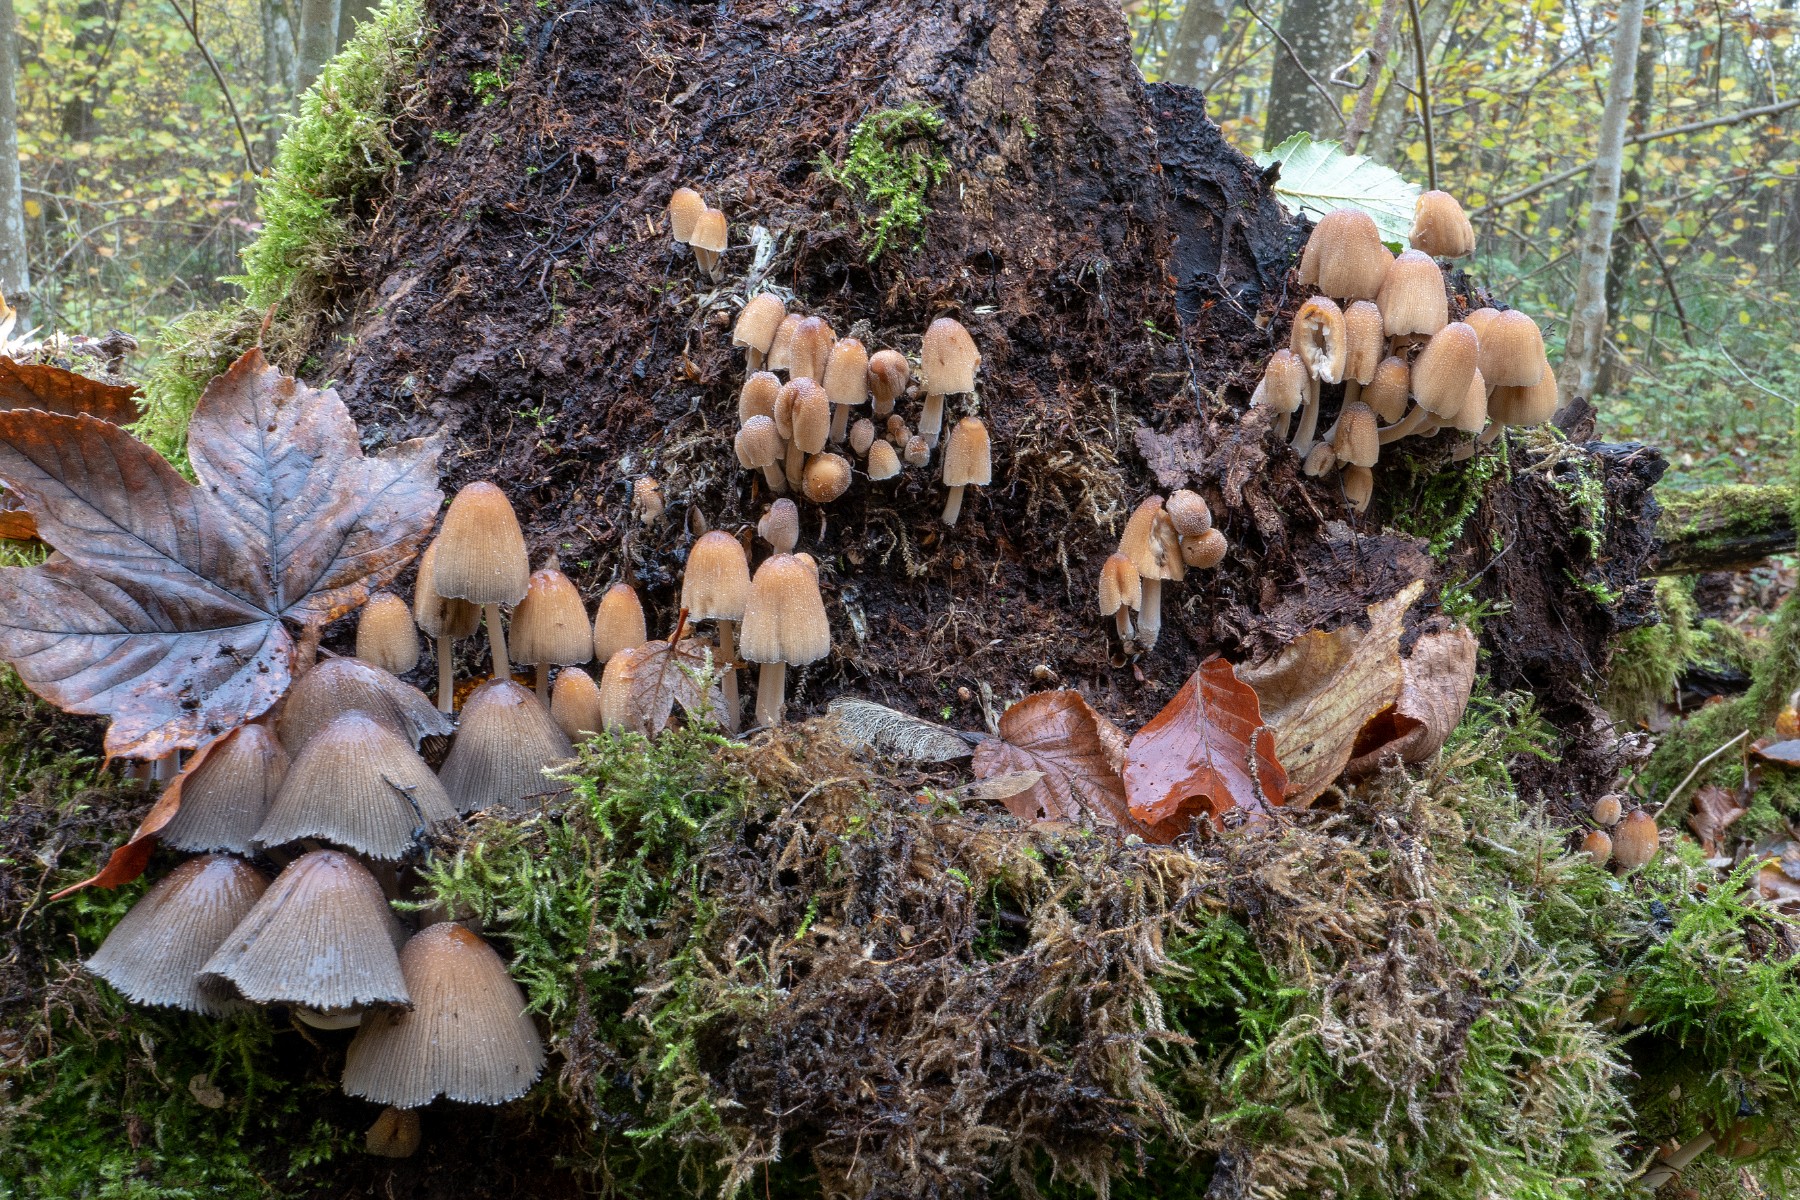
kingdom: Fungi
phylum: Basidiomycota
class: Agaricomycetes
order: Agaricales
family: Psathyrellaceae
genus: Coprinellus
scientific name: Coprinellus micaceus
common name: glimmer-blækhat
